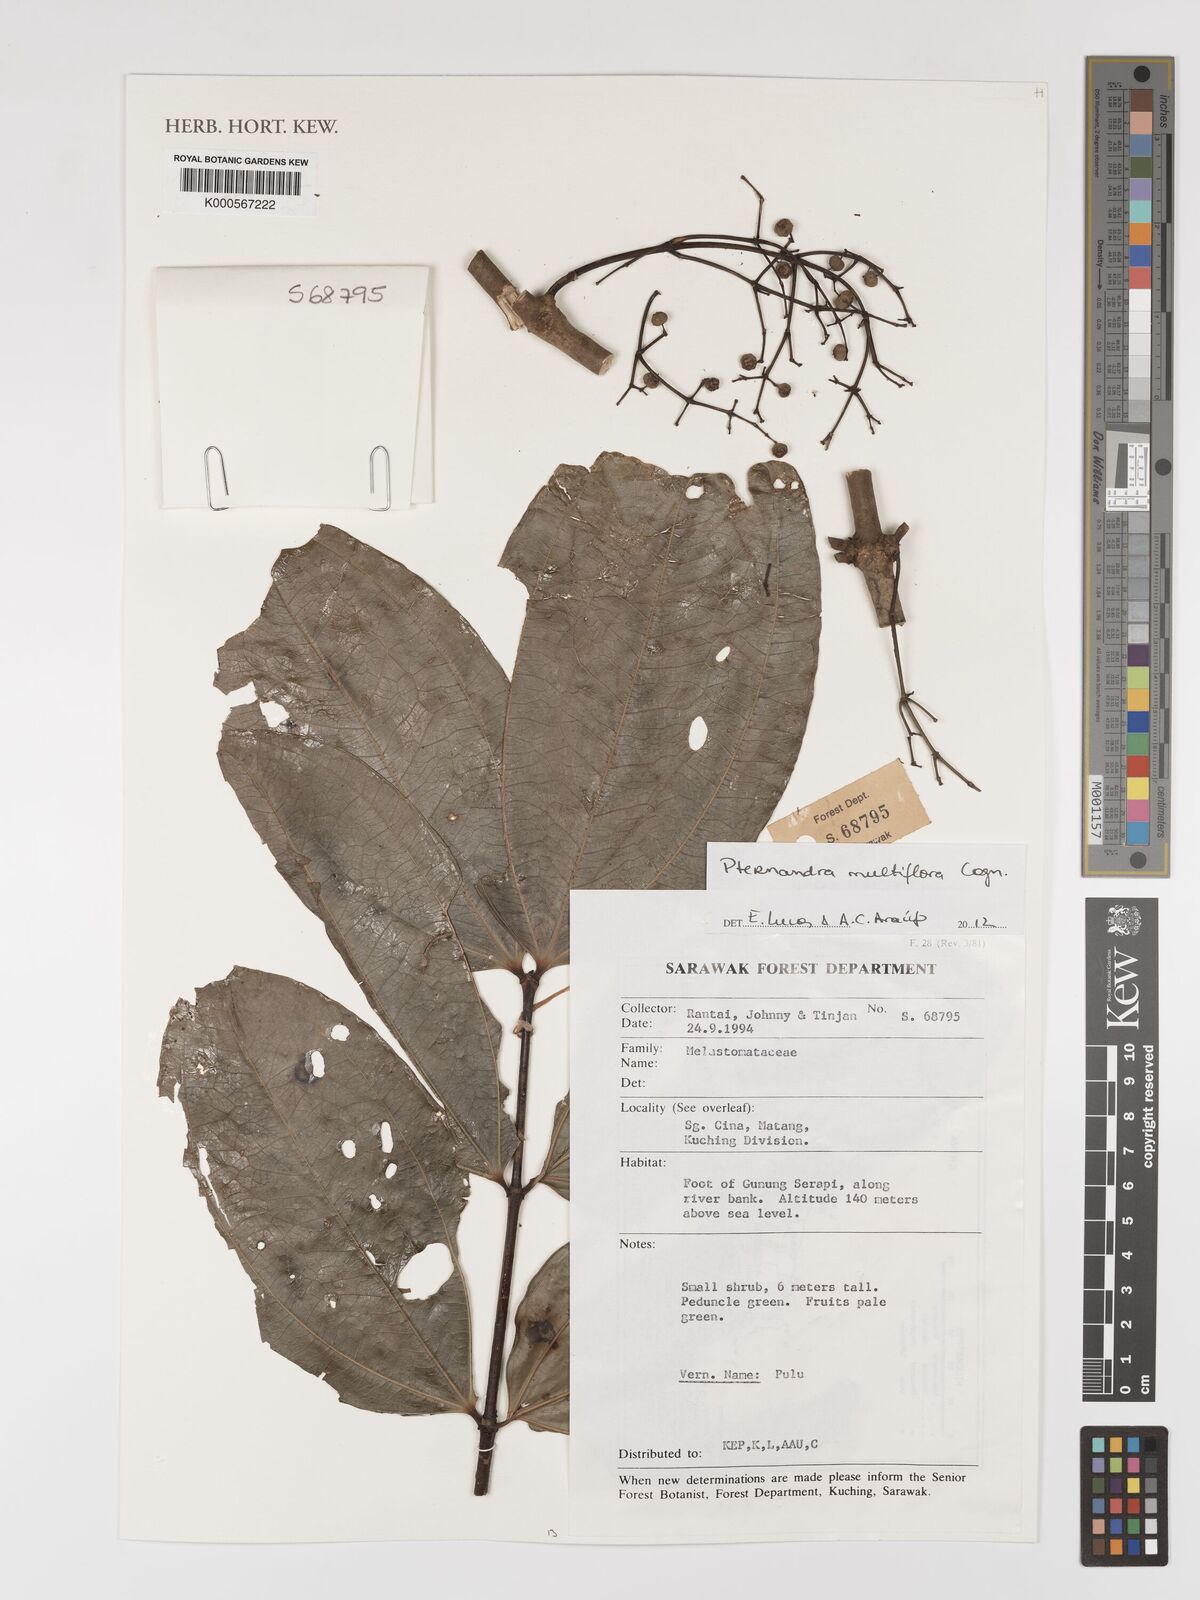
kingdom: Plantae
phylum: Tracheophyta
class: Magnoliopsida
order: Myrtales
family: Melastomataceae
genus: Pternandra
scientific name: Pternandra multiflora
